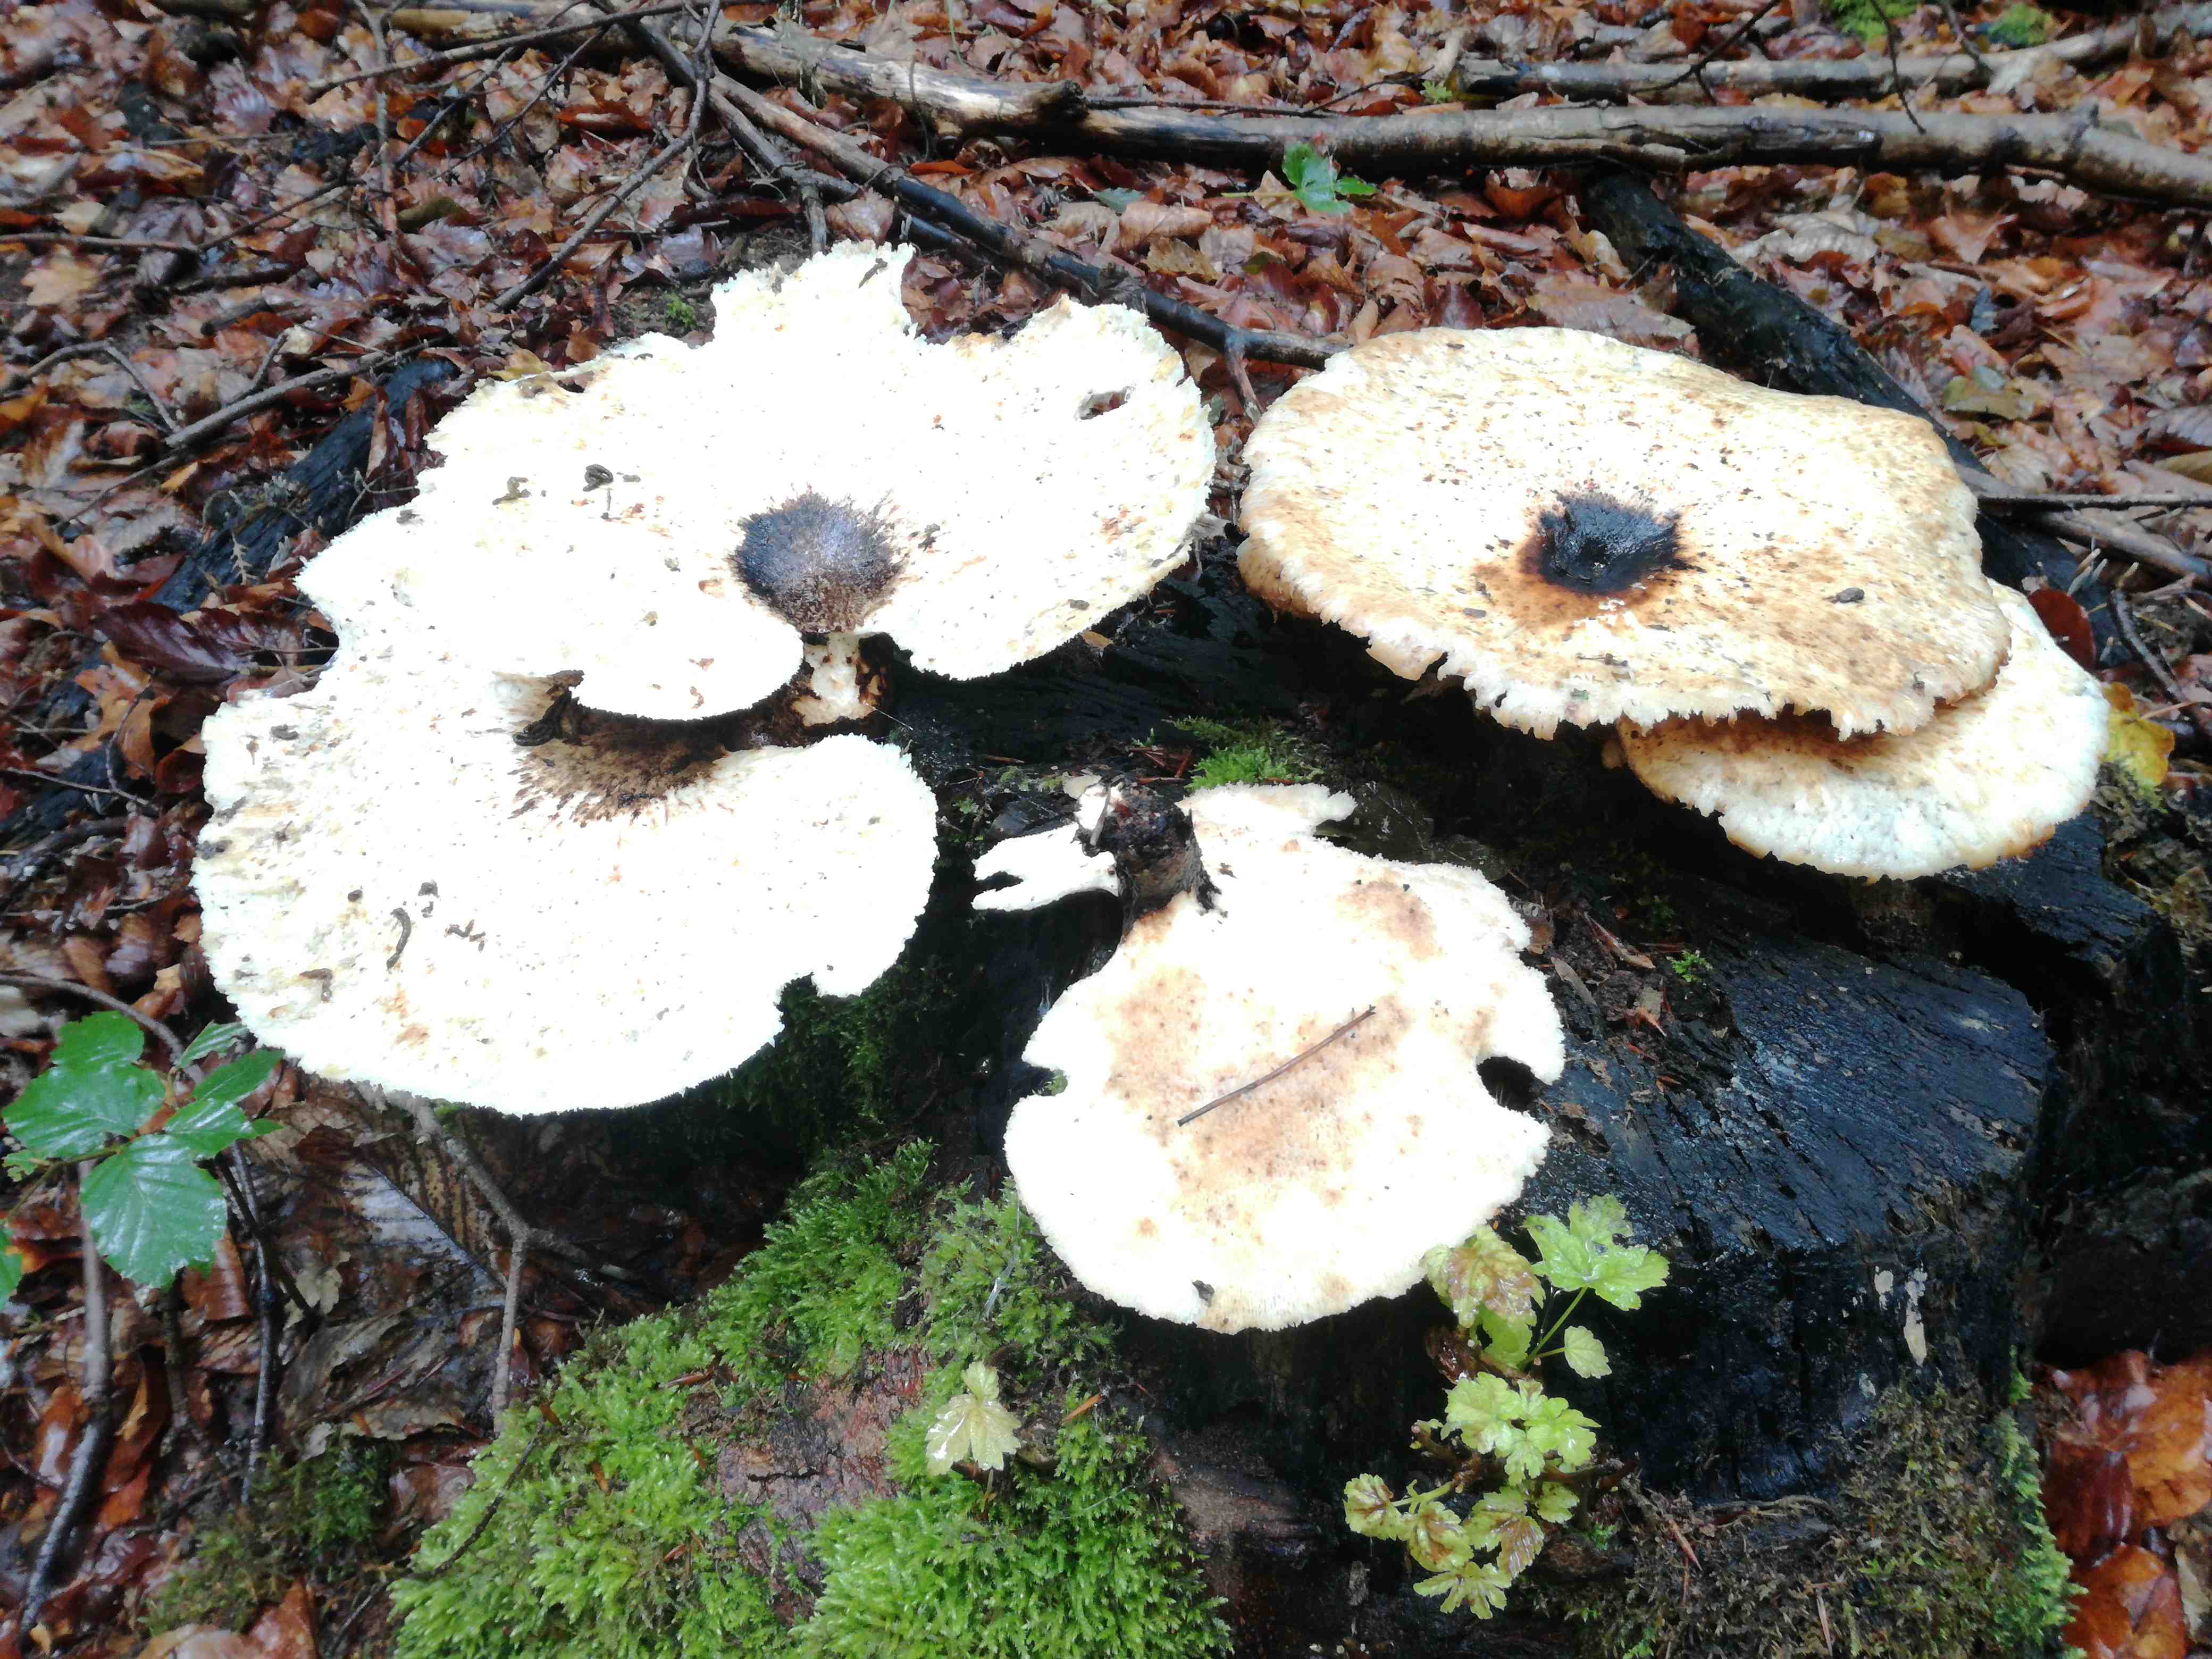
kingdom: Fungi
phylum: Basidiomycota
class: Agaricomycetes
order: Polyporales
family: Polyporaceae
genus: Cerioporus
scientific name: Cerioporus squamosus
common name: skællet stilkporesvamp
